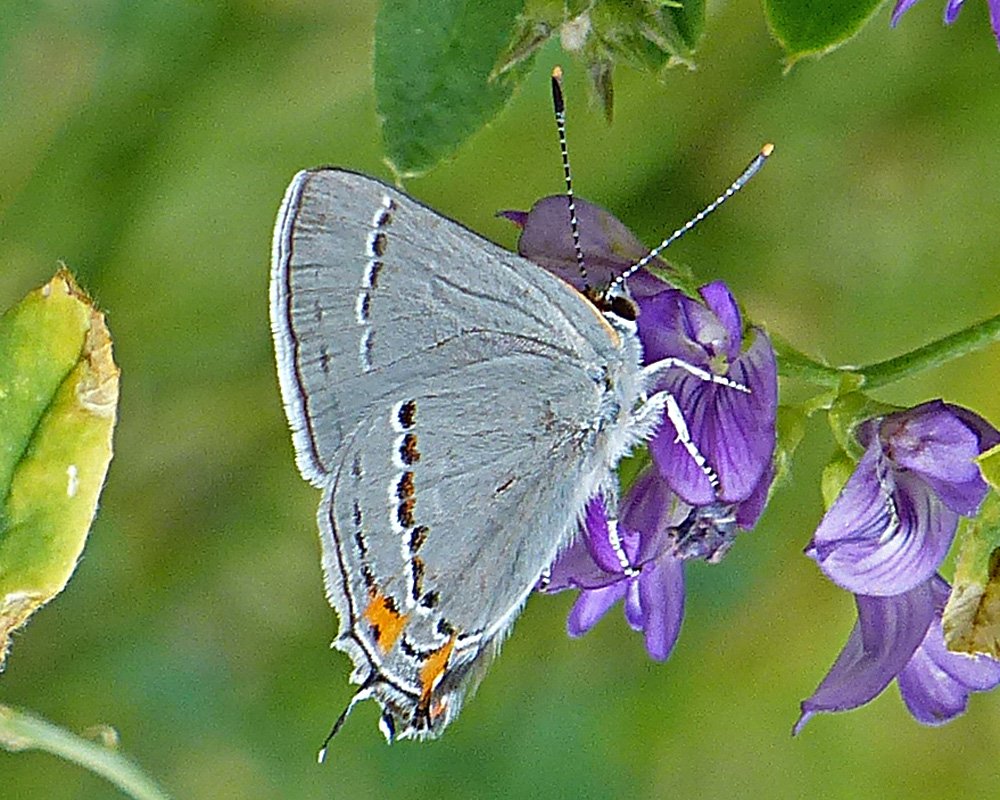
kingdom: Animalia
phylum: Arthropoda
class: Insecta
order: Lepidoptera
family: Lycaenidae
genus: Strymon
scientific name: Strymon melinus
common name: Gray Hairstreak
